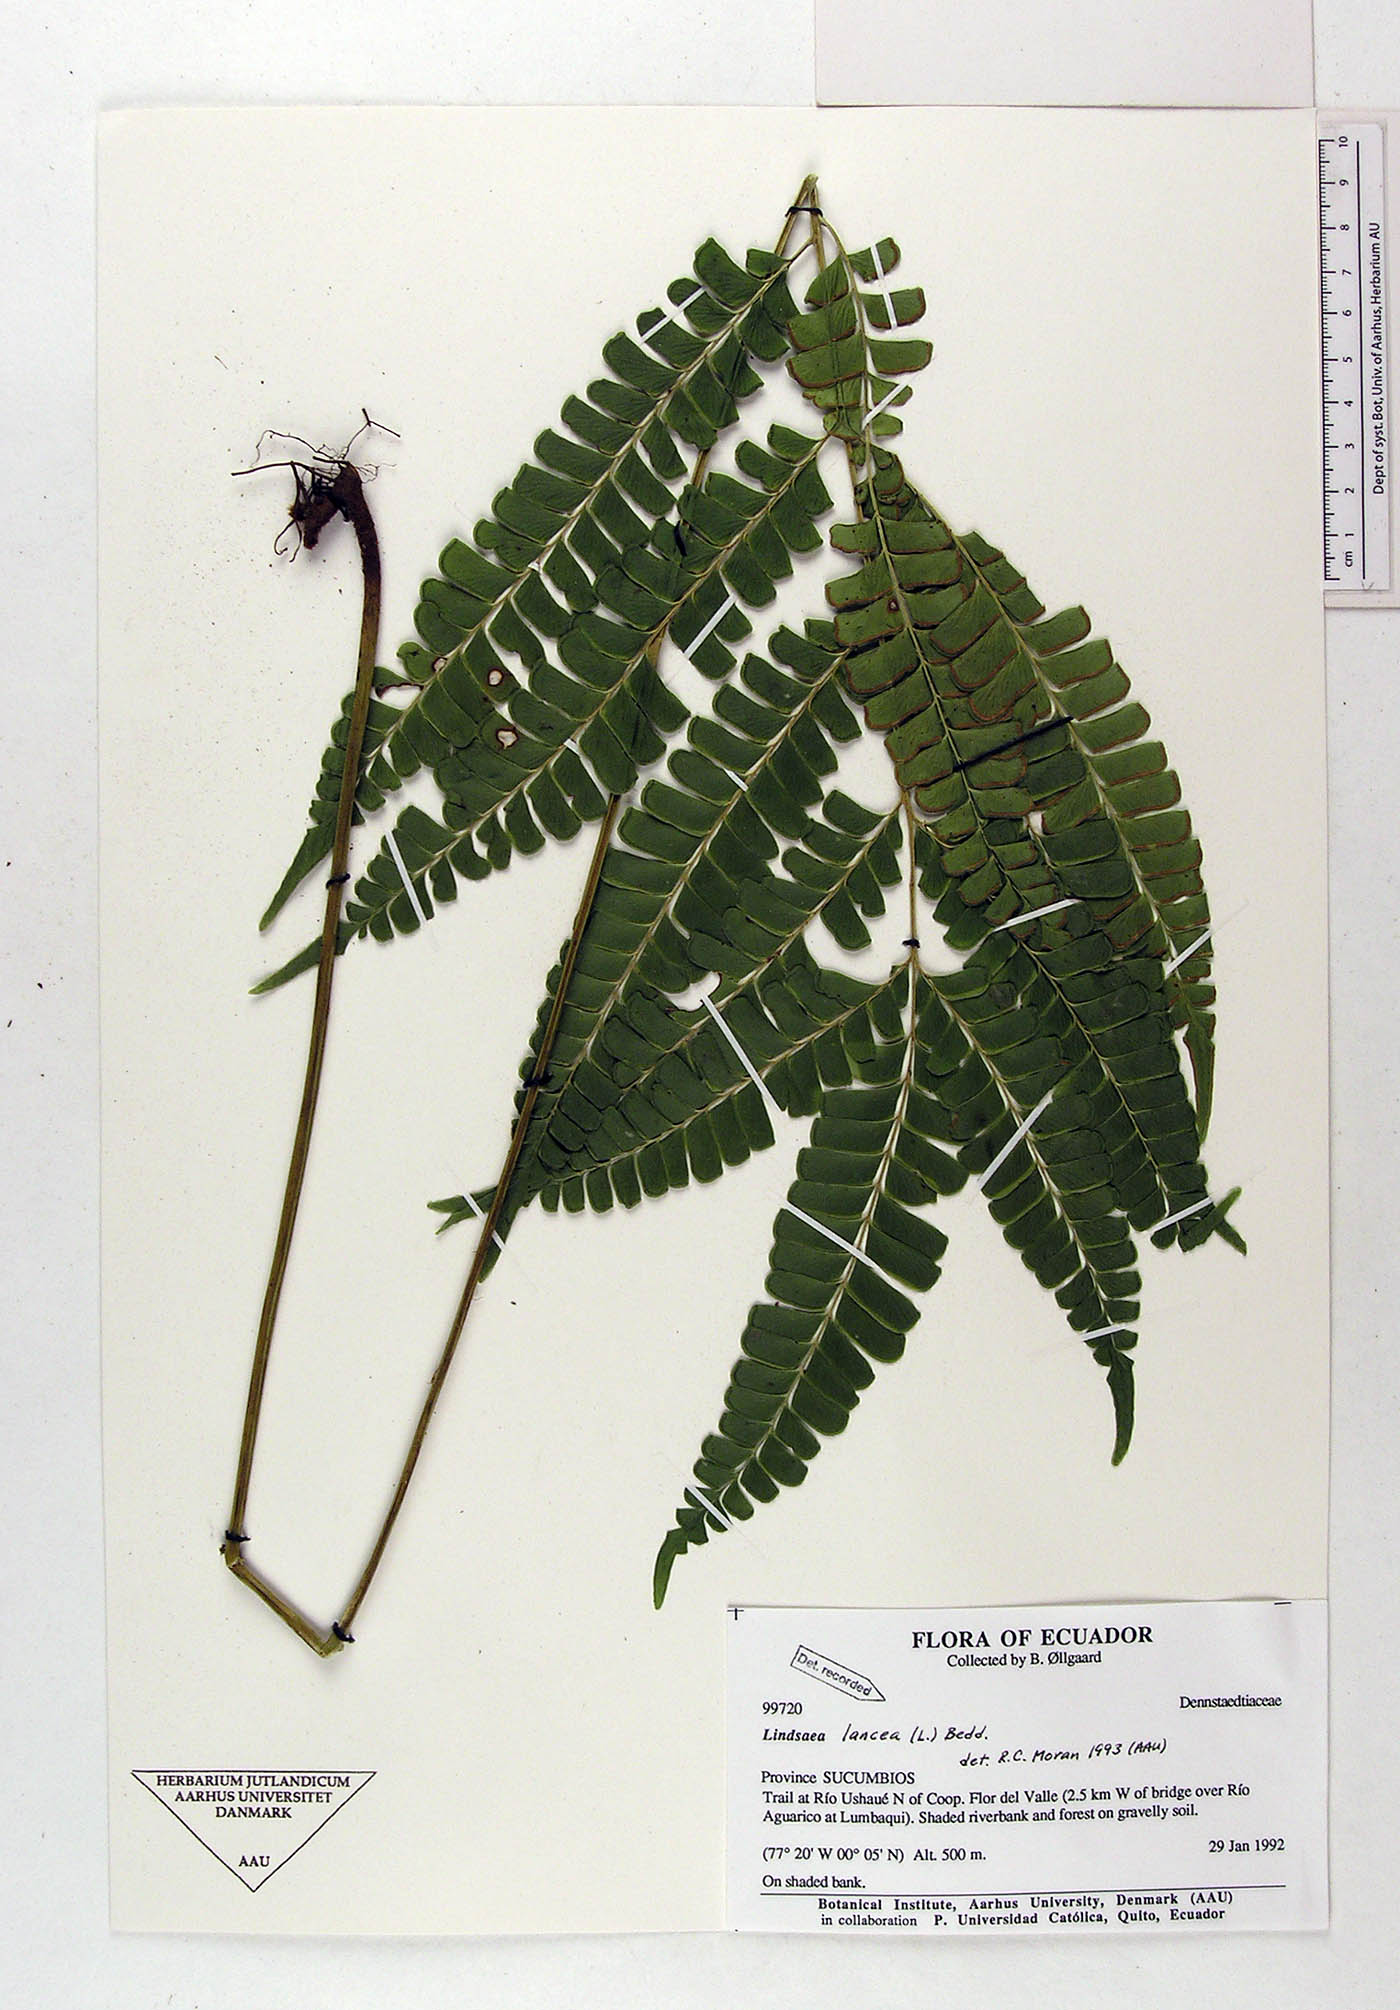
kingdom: Plantae
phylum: Tracheophyta
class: Polypodiopsida
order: Polypodiales
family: Dennstaedtiaceae
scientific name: Dennstaedtiaceae
